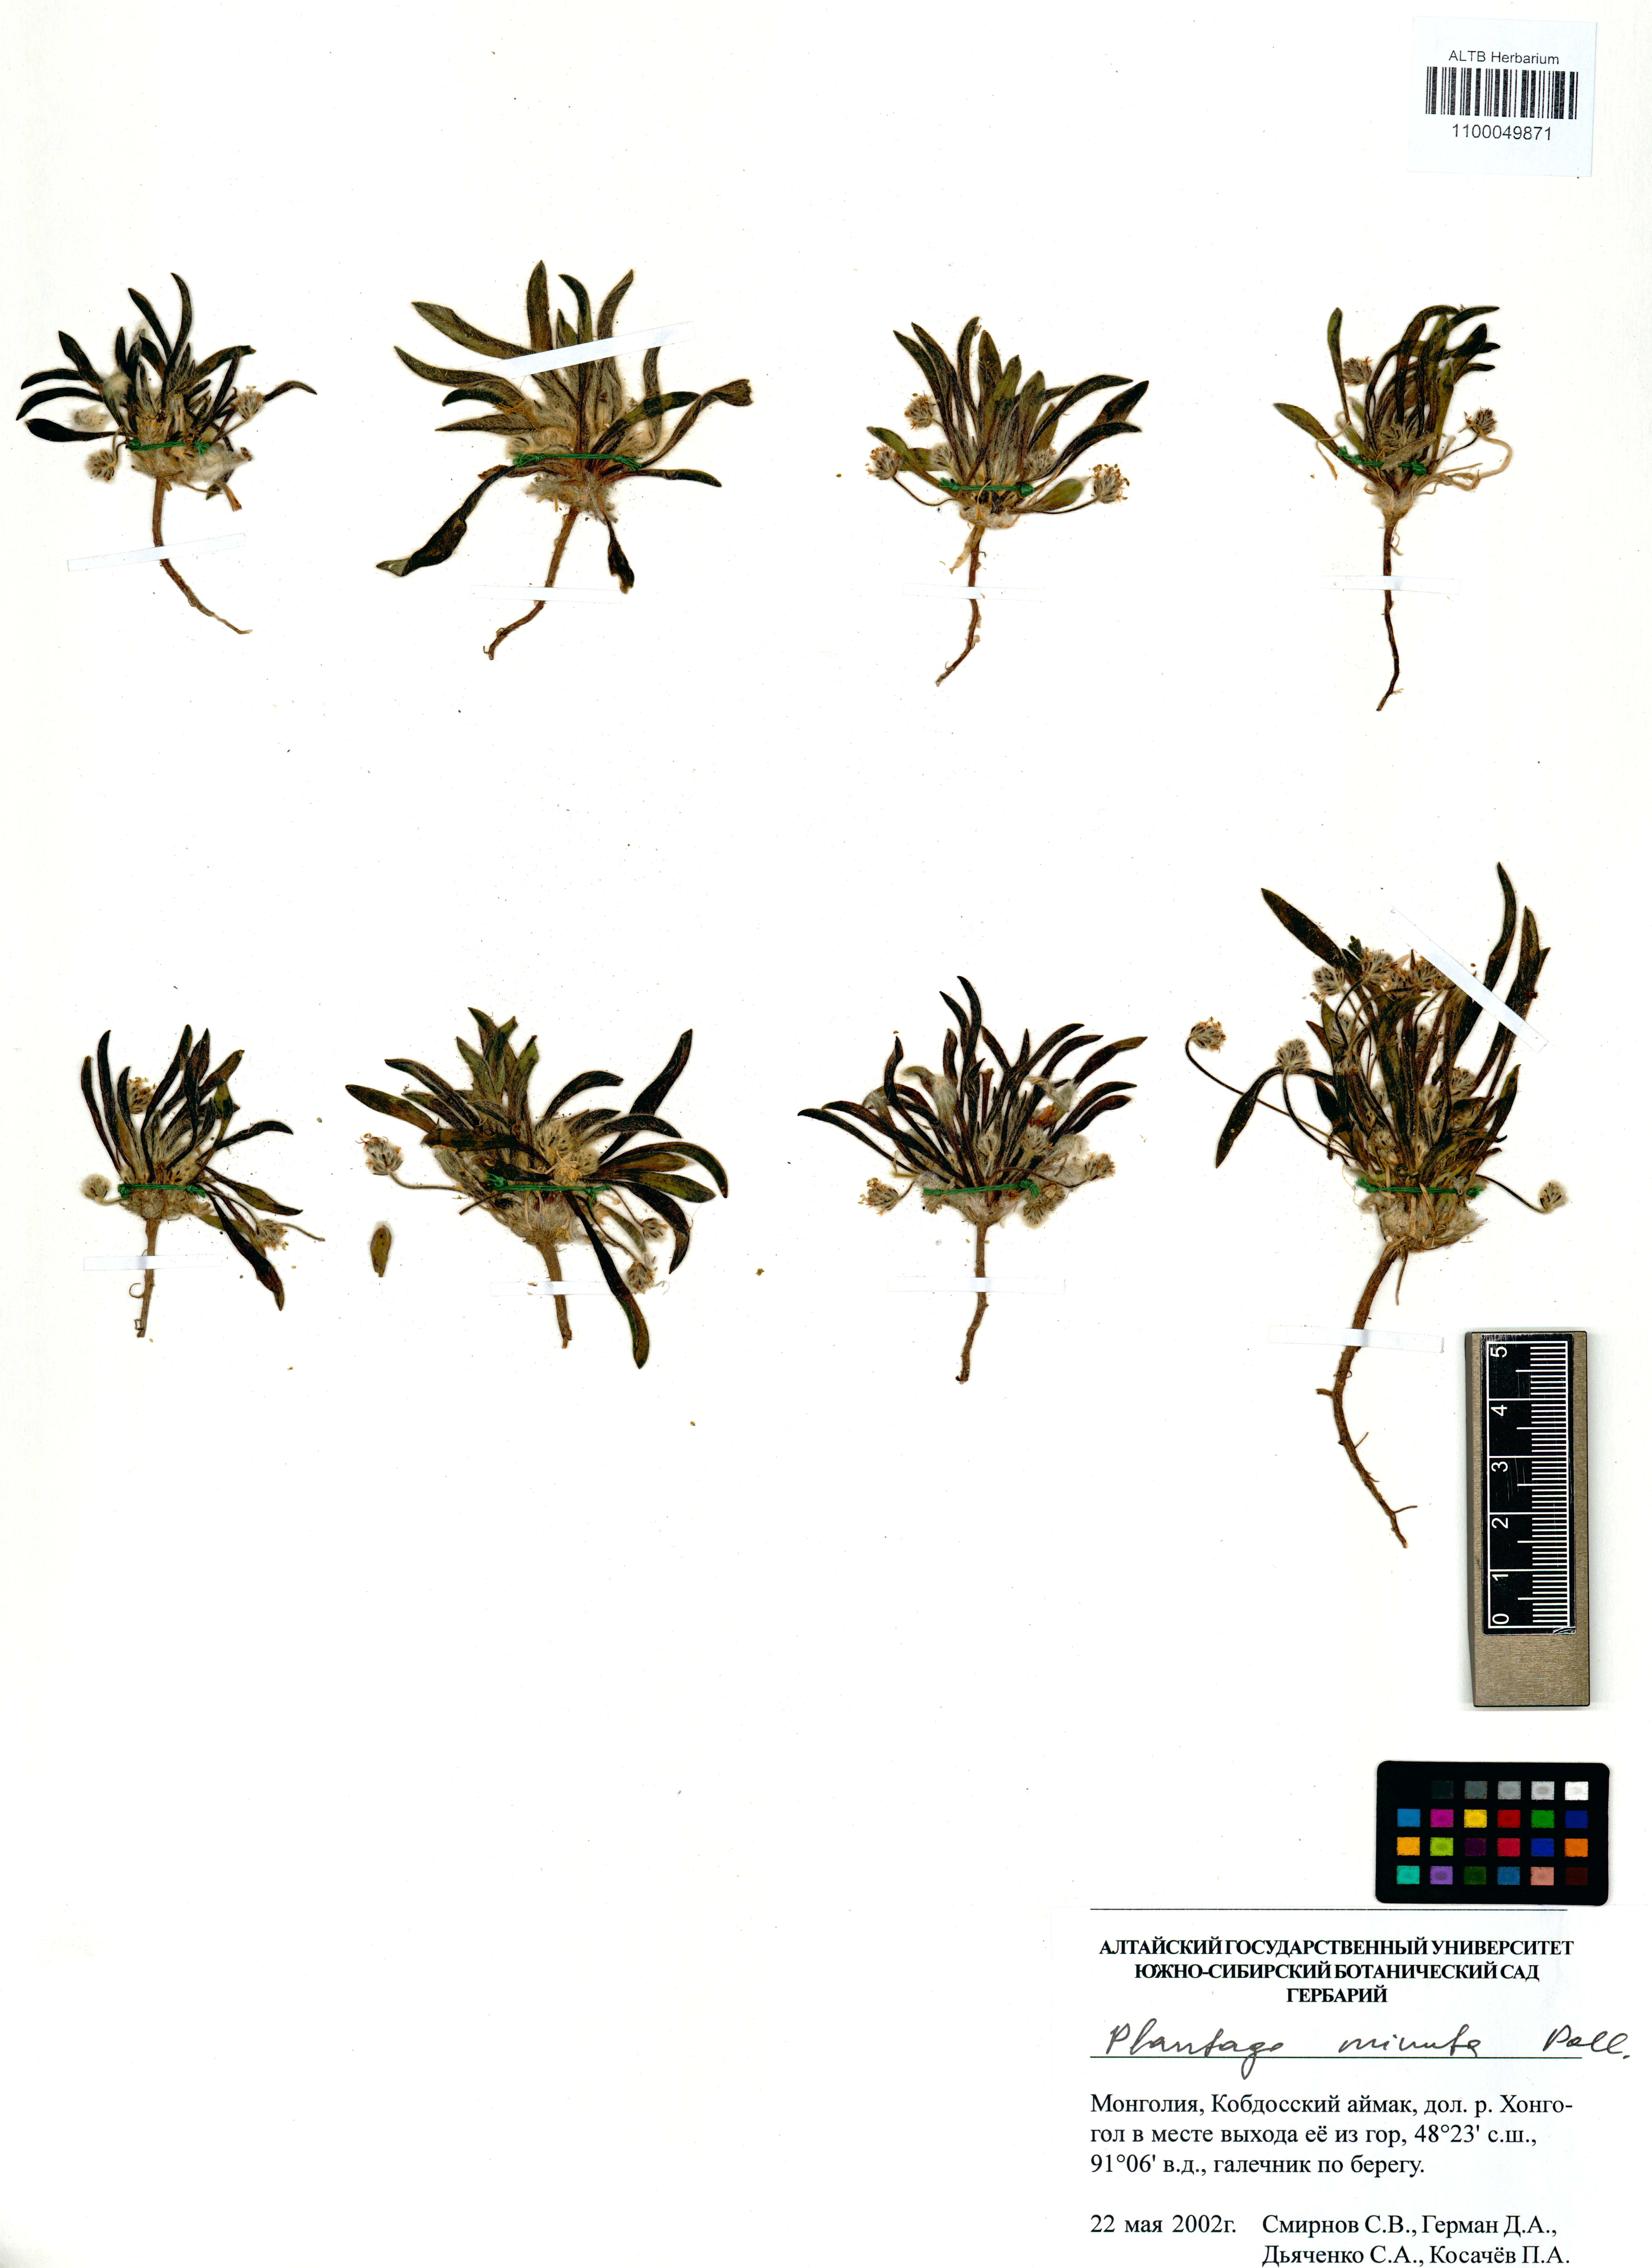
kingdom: Plantae
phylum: Tracheophyta
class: Magnoliopsida
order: Lamiales
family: Plantaginaceae
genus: Plantago
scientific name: Plantago minuta
